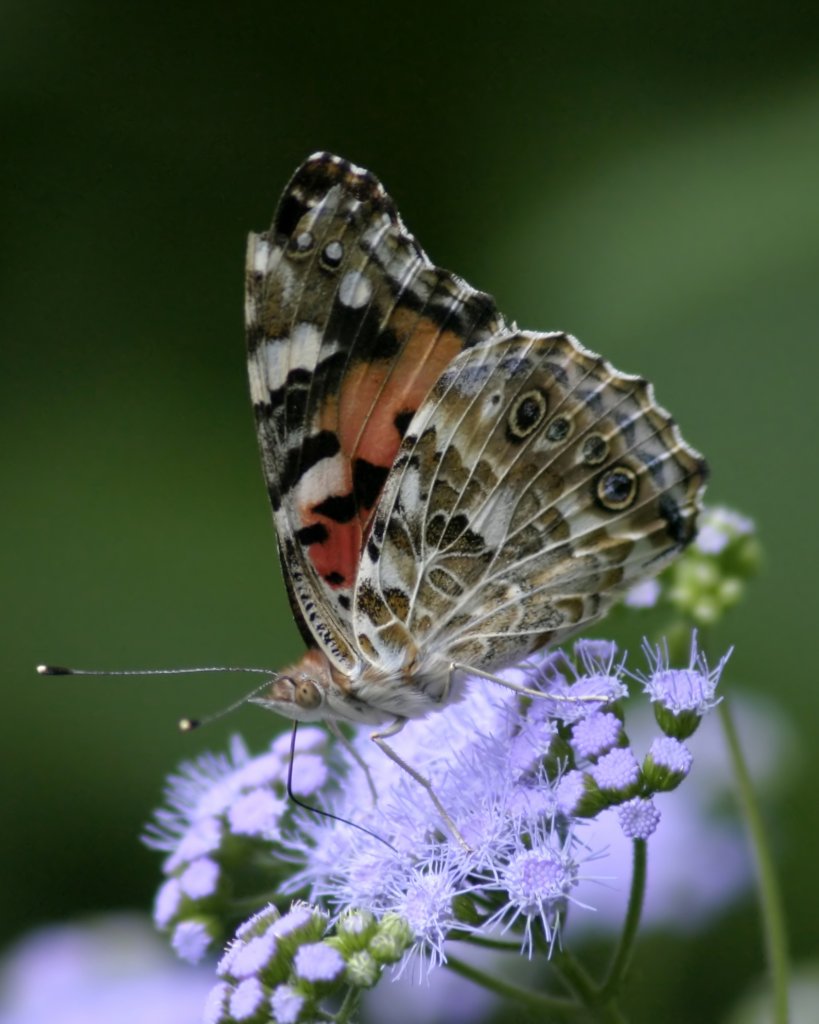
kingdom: Animalia
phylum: Arthropoda
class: Insecta
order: Lepidoptera
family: Nymphalidae
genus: Vanessa
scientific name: Vanessa cardui
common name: Painted Lady
